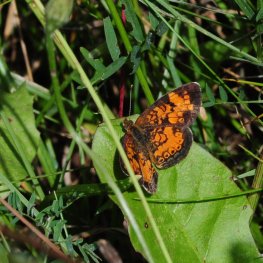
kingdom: Animalia
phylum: Arthropoda
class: Insecta
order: Lepidoptera
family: Nymphalidae
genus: Phyciodes
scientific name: Phyciodes tharos
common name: Northern Crescent
